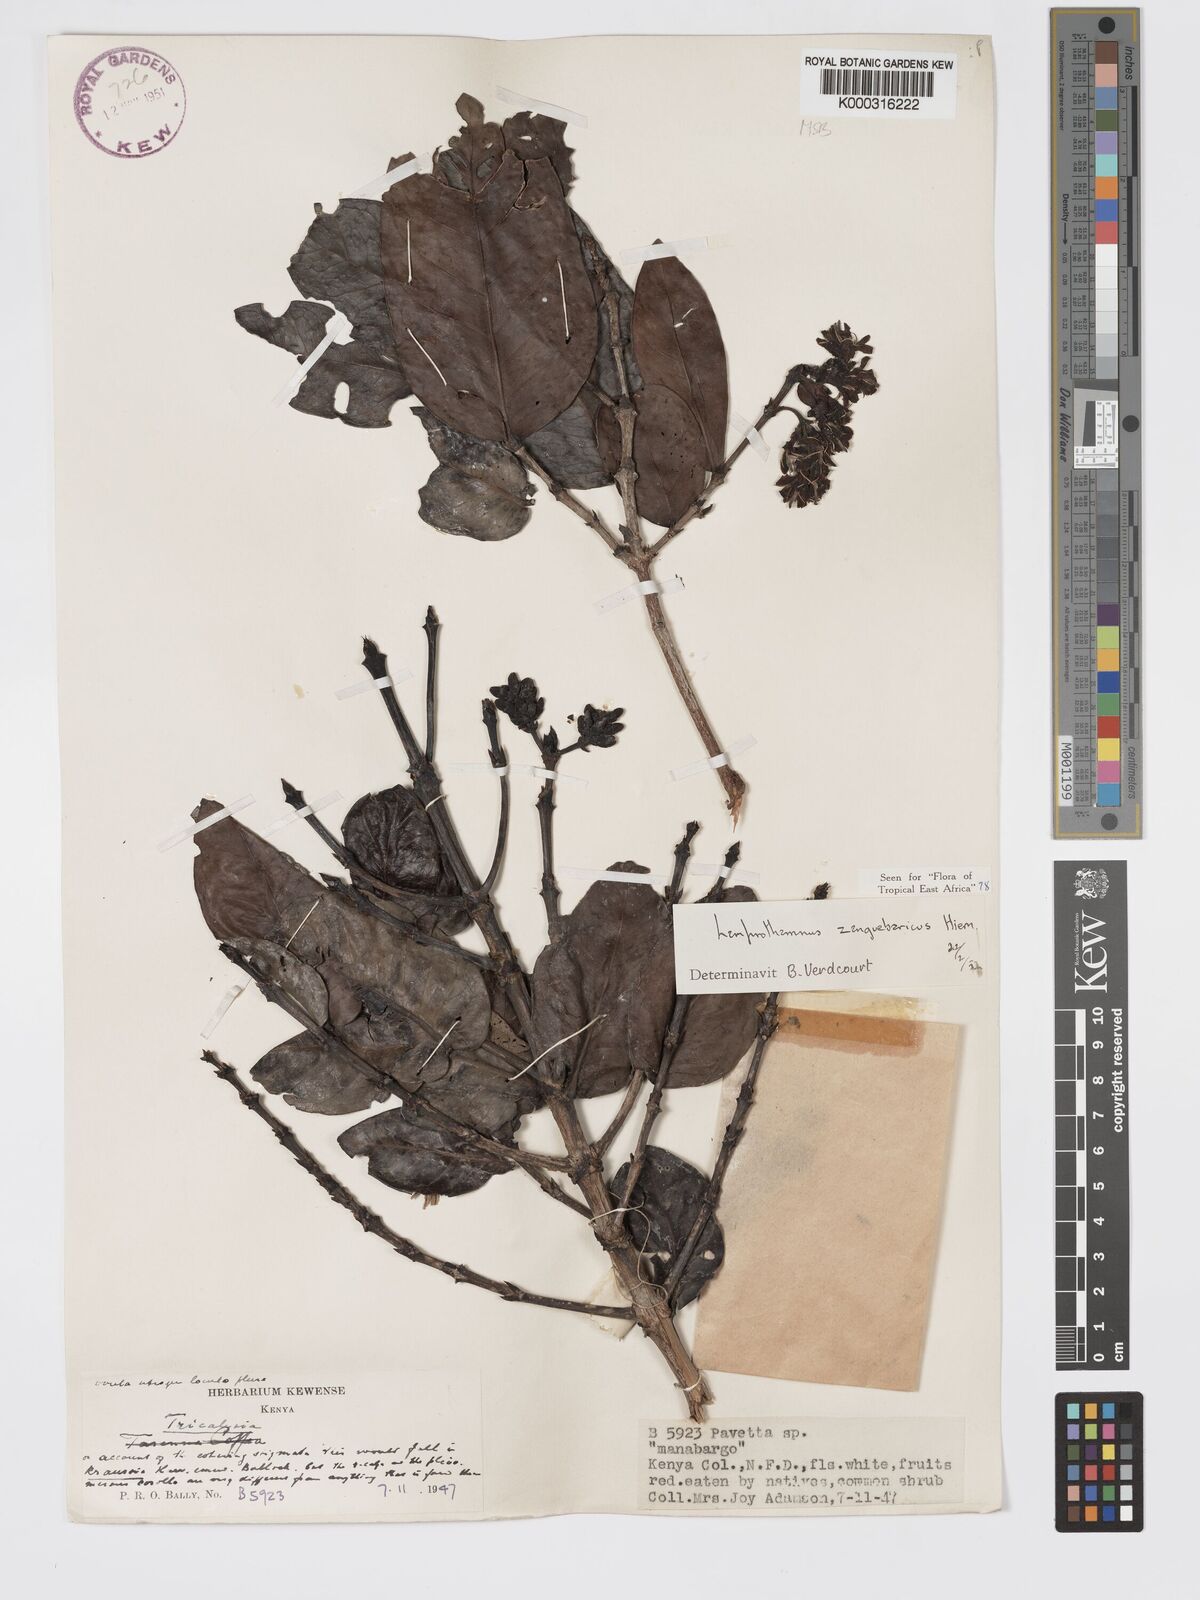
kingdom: Plantae
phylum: Tracheophyta
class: Magnoliopsida
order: Gentianales
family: Rubiaceae
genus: Lamprothamnus
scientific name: Lamprothamnus zanguebaricus
